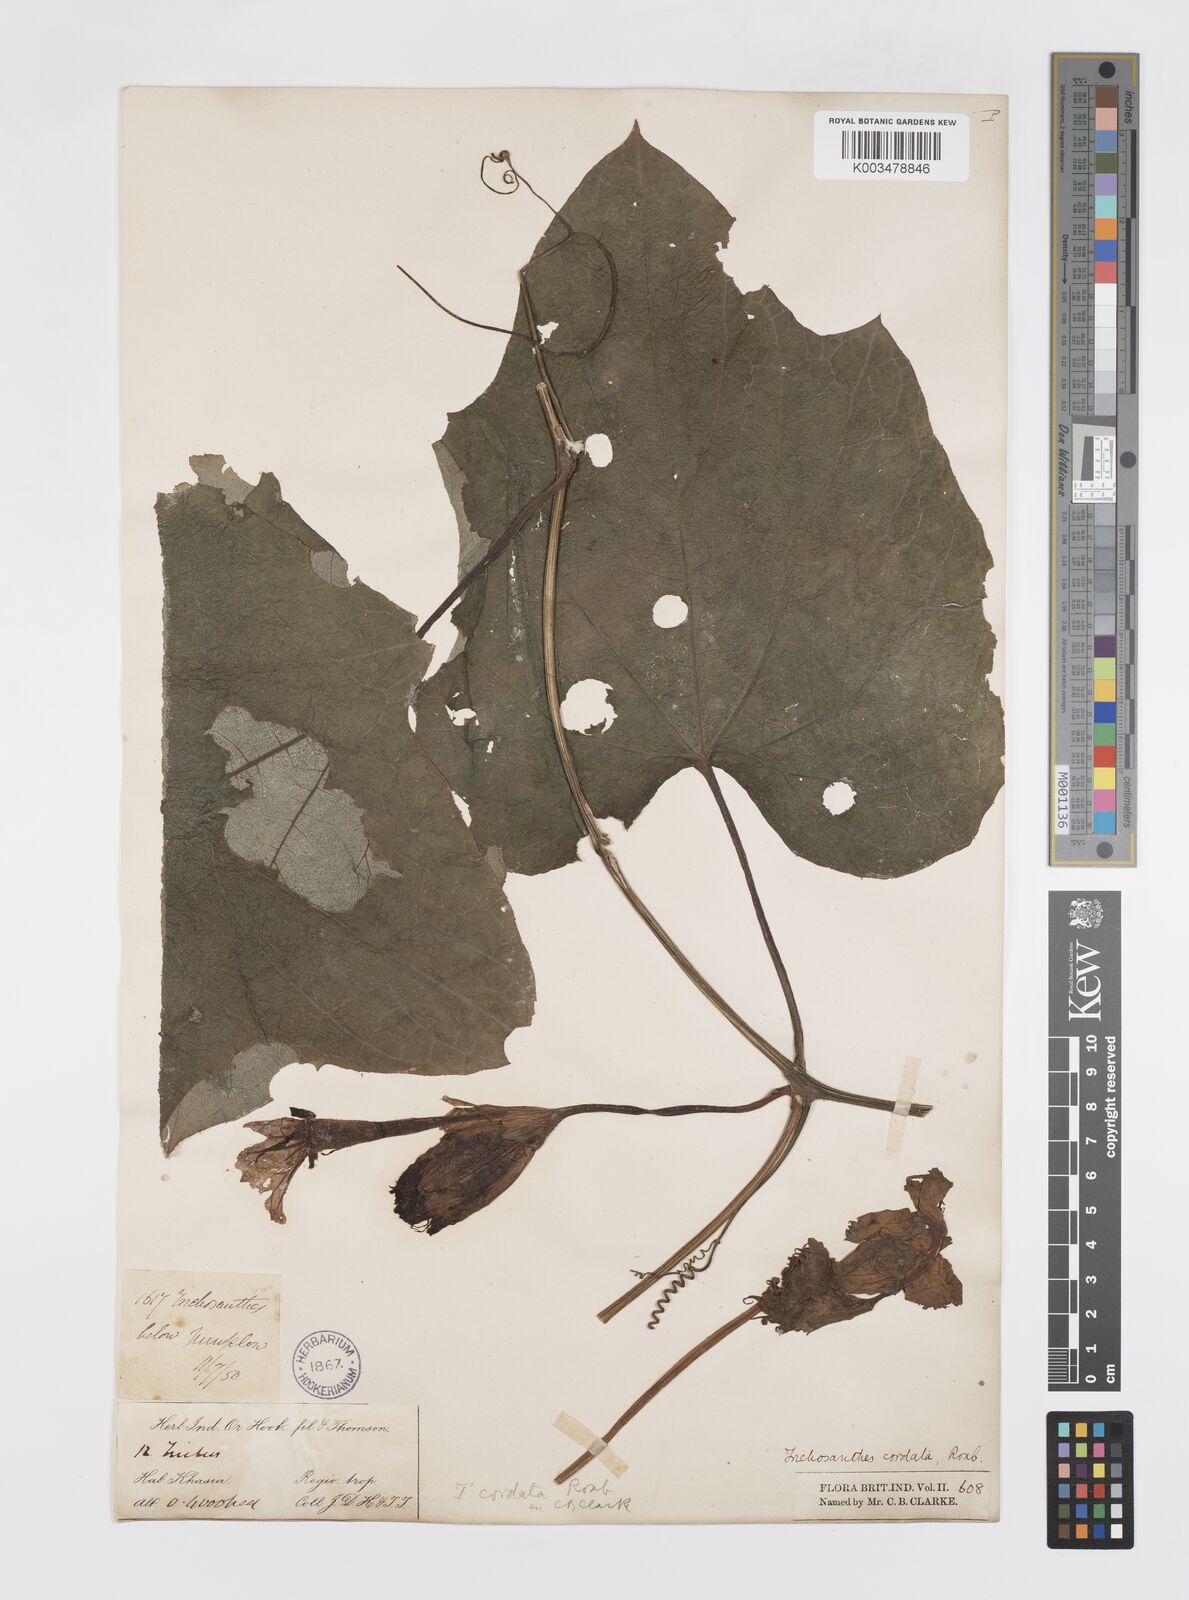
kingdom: Plantae
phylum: Tracheophyta
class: Magnoliopsida
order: Cucurbitales
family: Cucurbitaceae
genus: Trichosanthes
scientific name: Trichosanthes cordata
